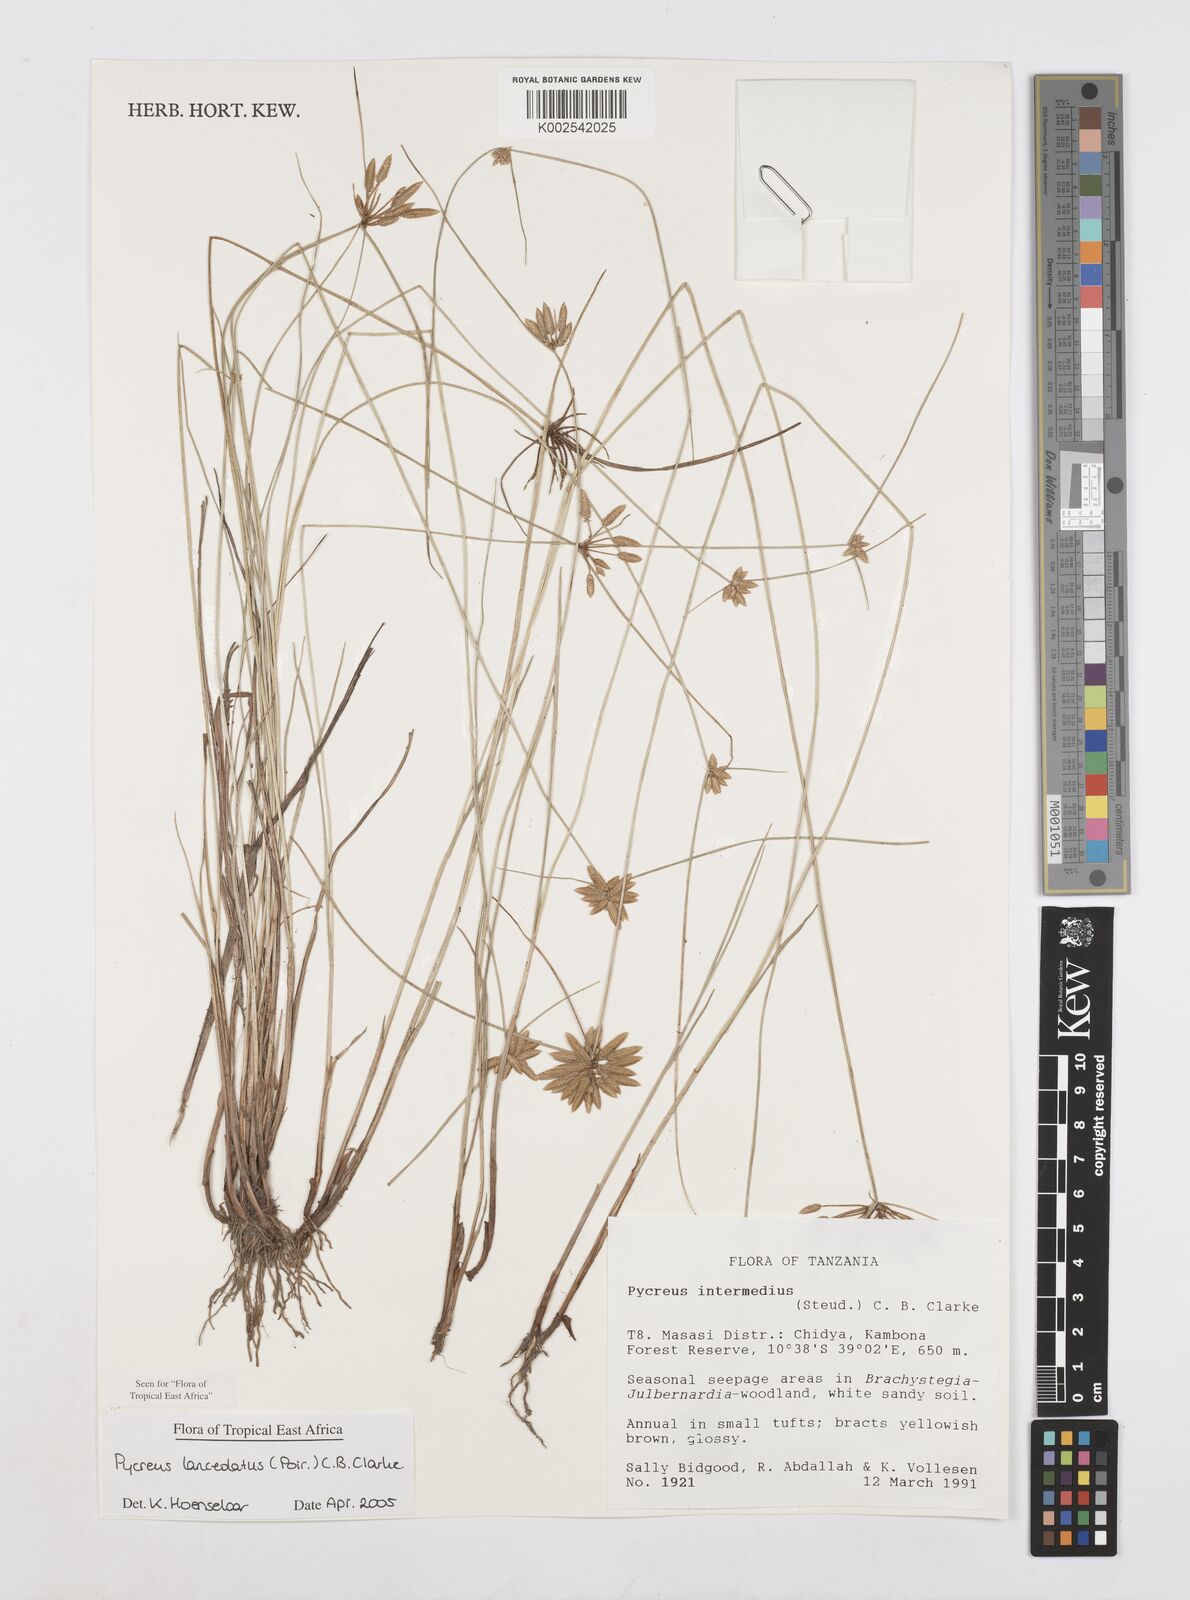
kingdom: Plantae
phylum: Tracheophyta
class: Liliopsida
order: Poales
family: Cyperaceae
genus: Cyperus
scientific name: Cyperus lanceolatus
